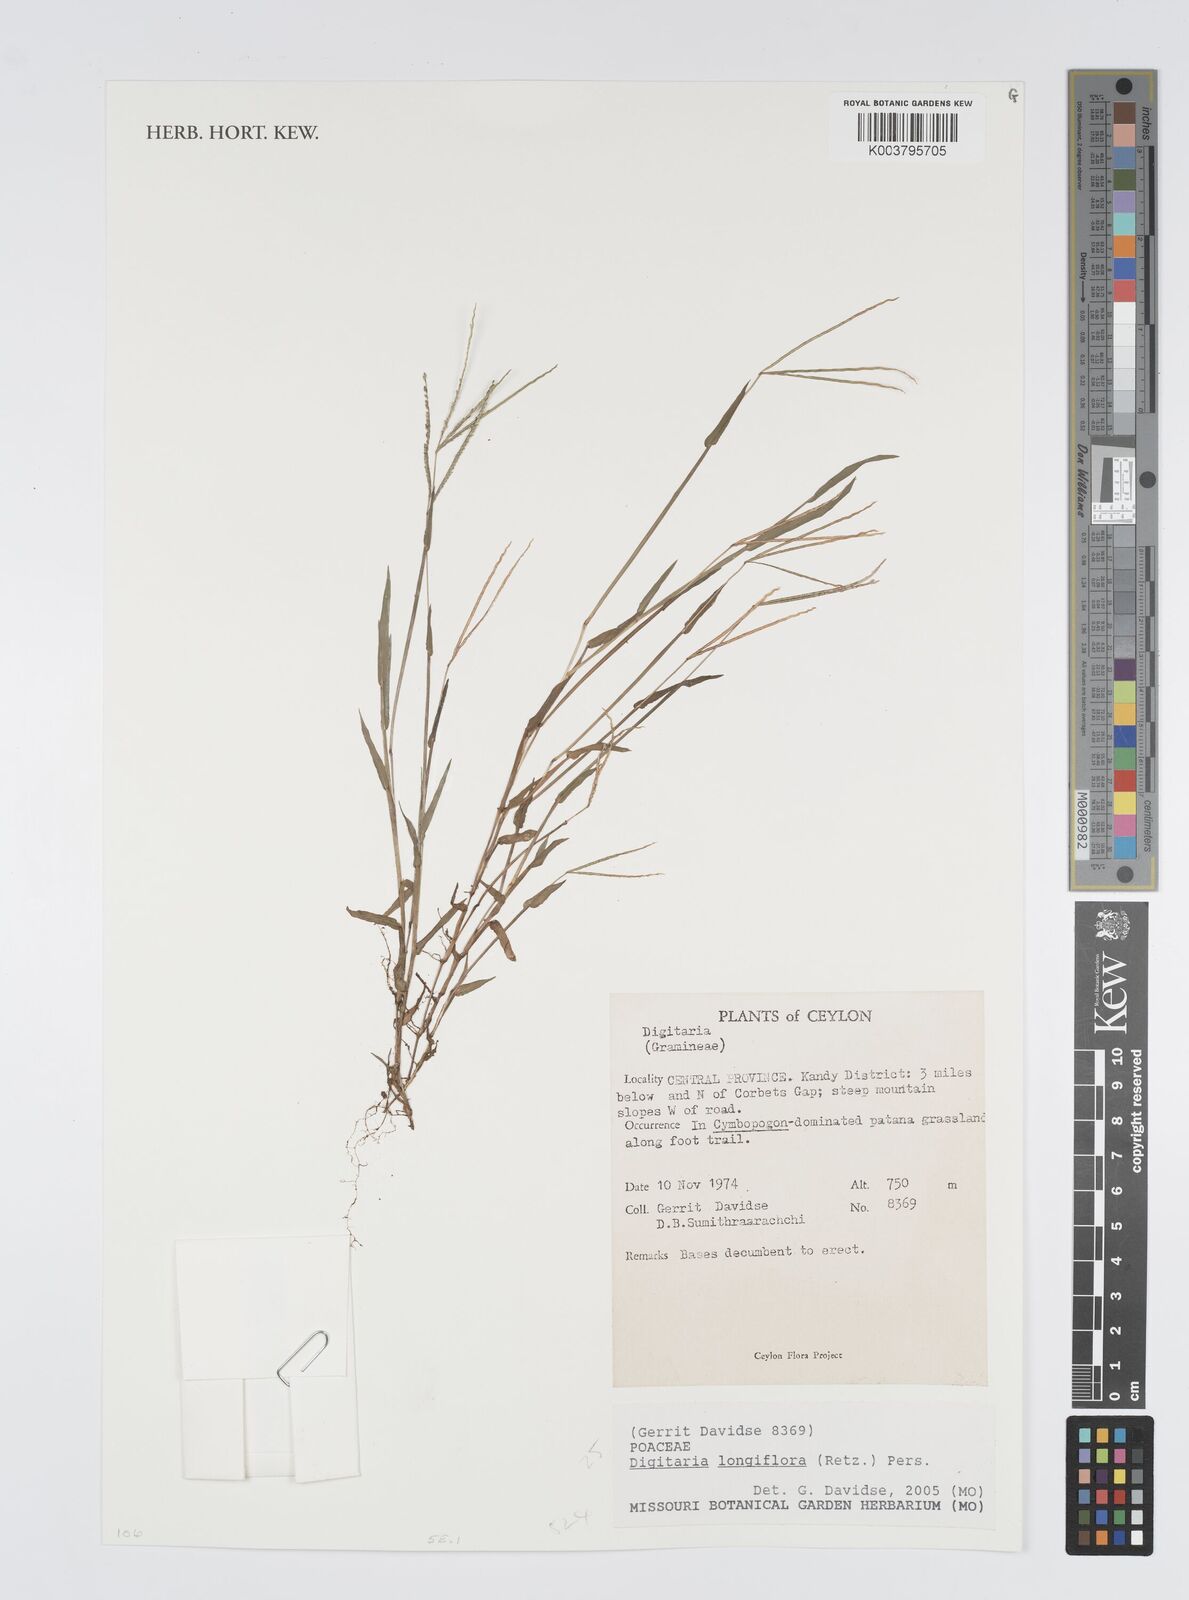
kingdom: Plantae
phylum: Tracheophyta
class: Liliopsida
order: Poales
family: Poaceae
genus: Digitaria
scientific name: Digitaria longiflora
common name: Wire crabgrass
